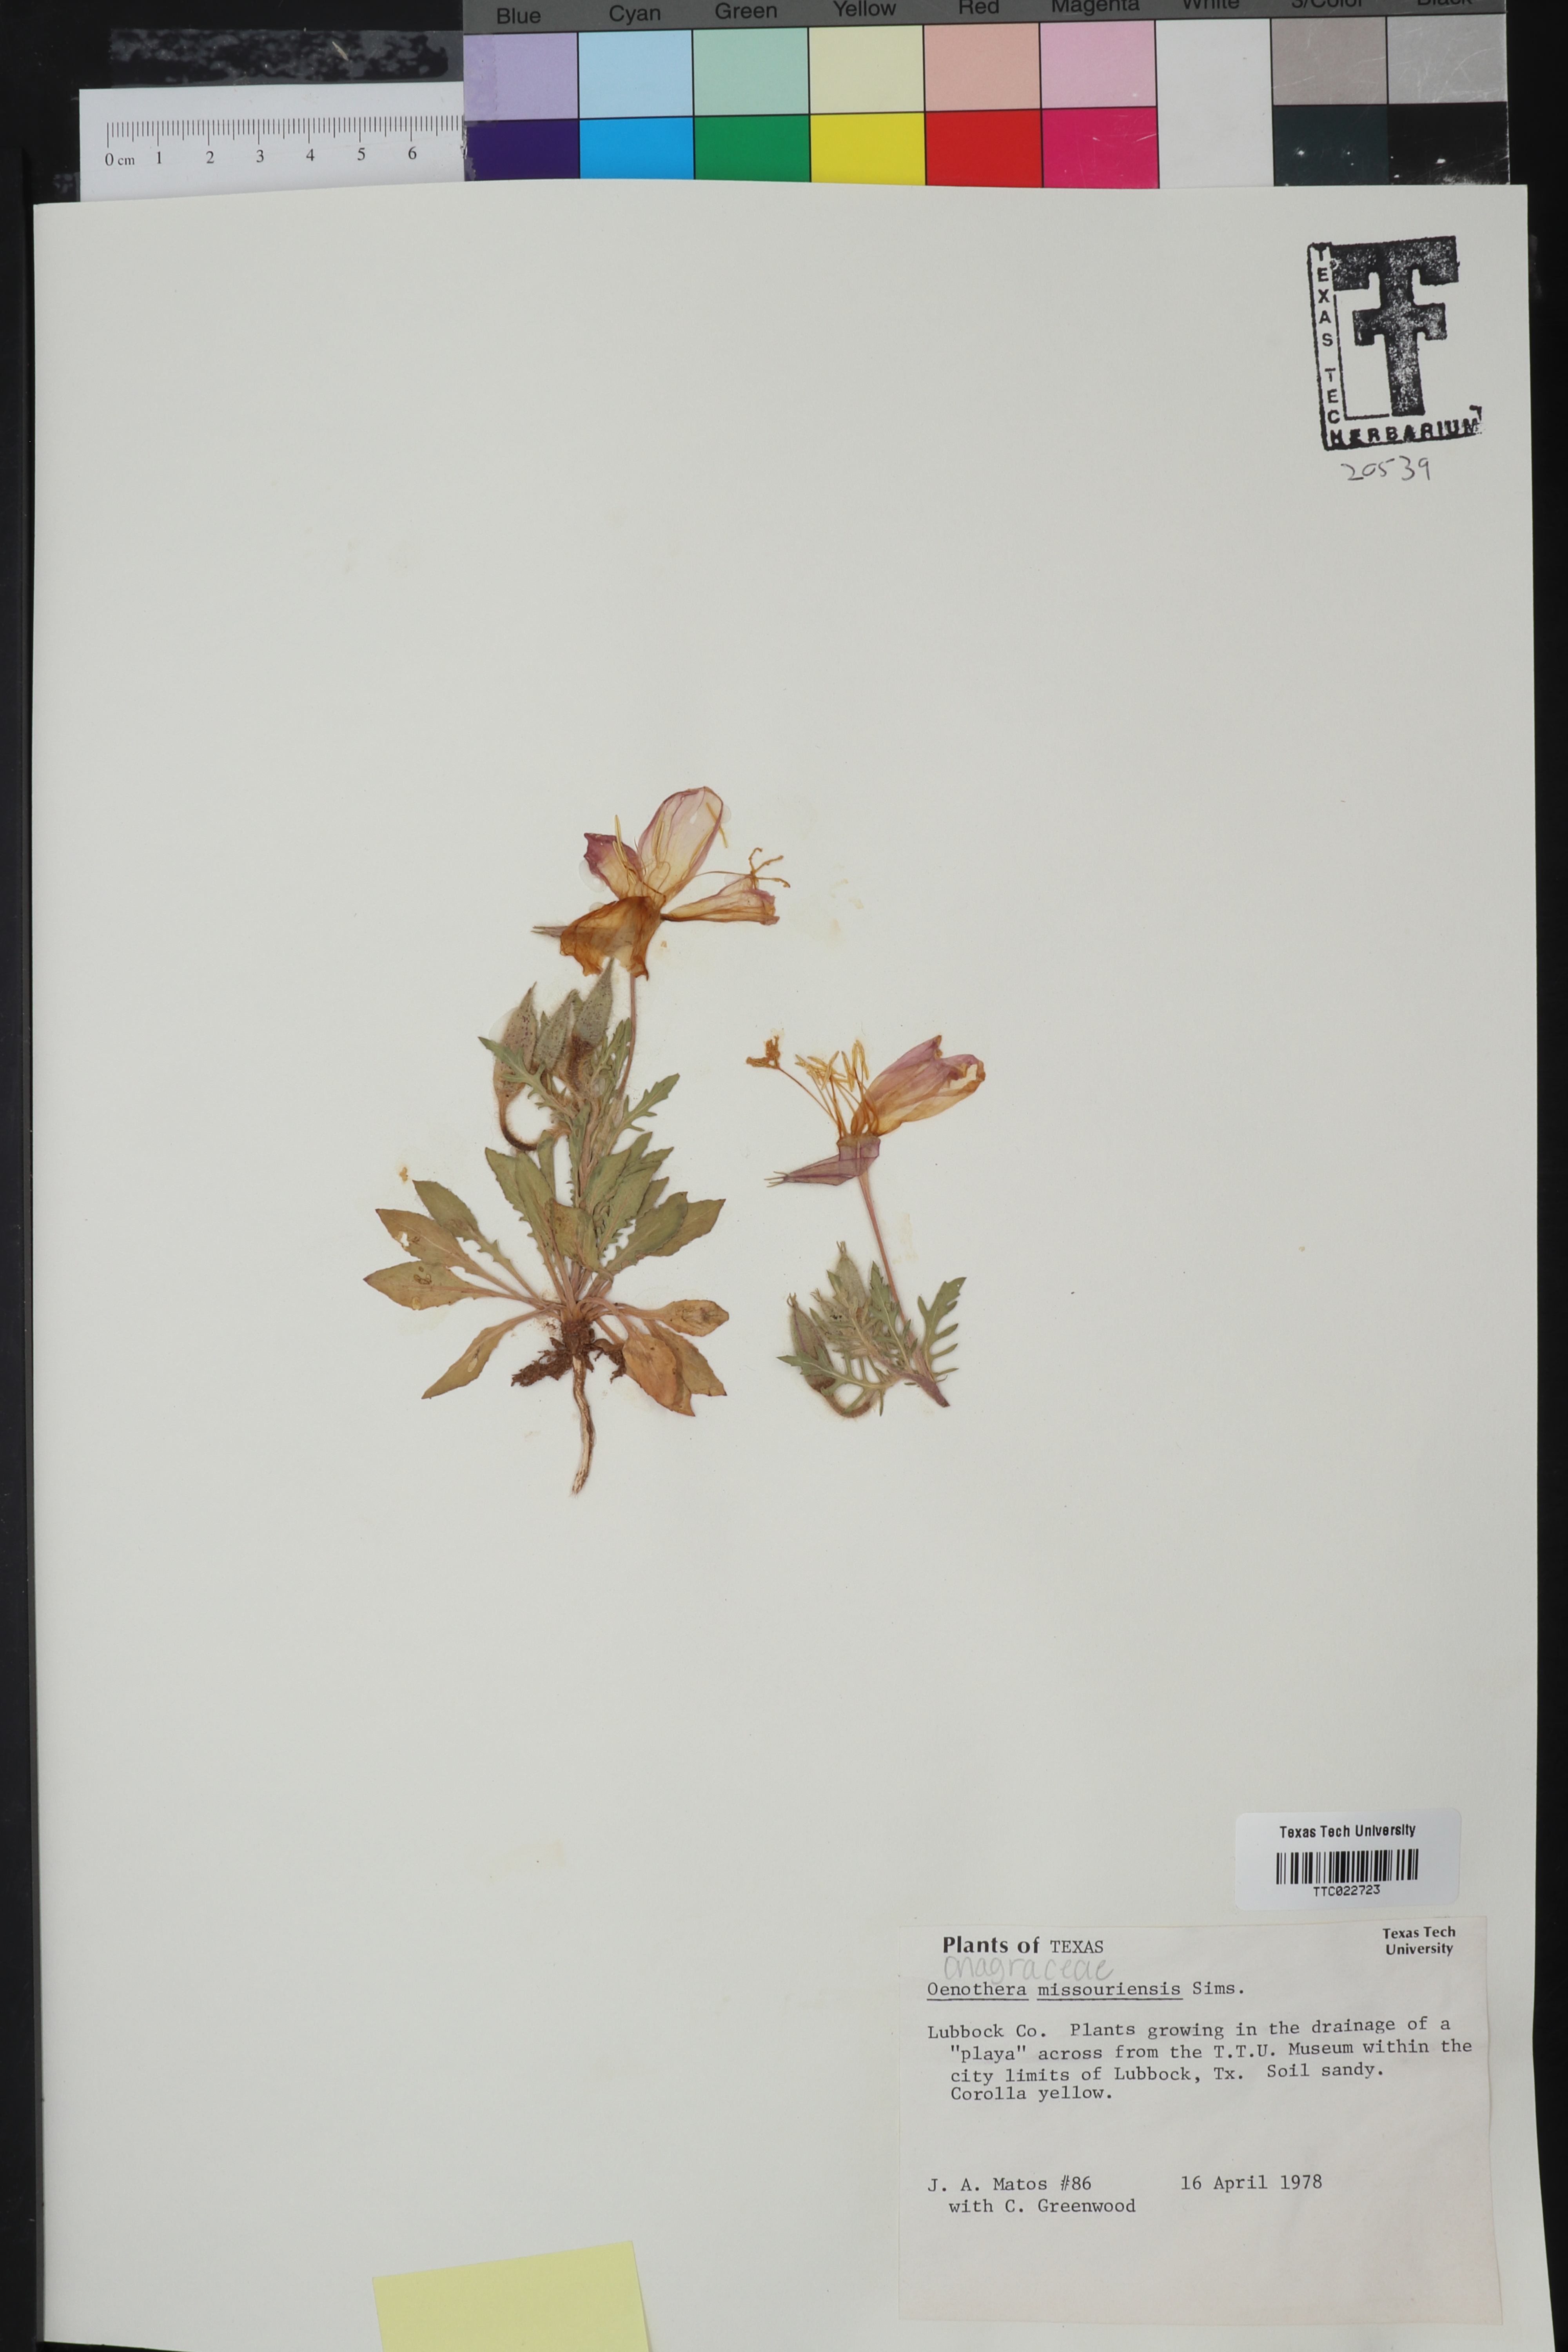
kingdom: Plantae
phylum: Tracheophyta
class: Magnoliopsida
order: Myrtales
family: Onagraceae
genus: Oenothera
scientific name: Oenothera macrocarpa
